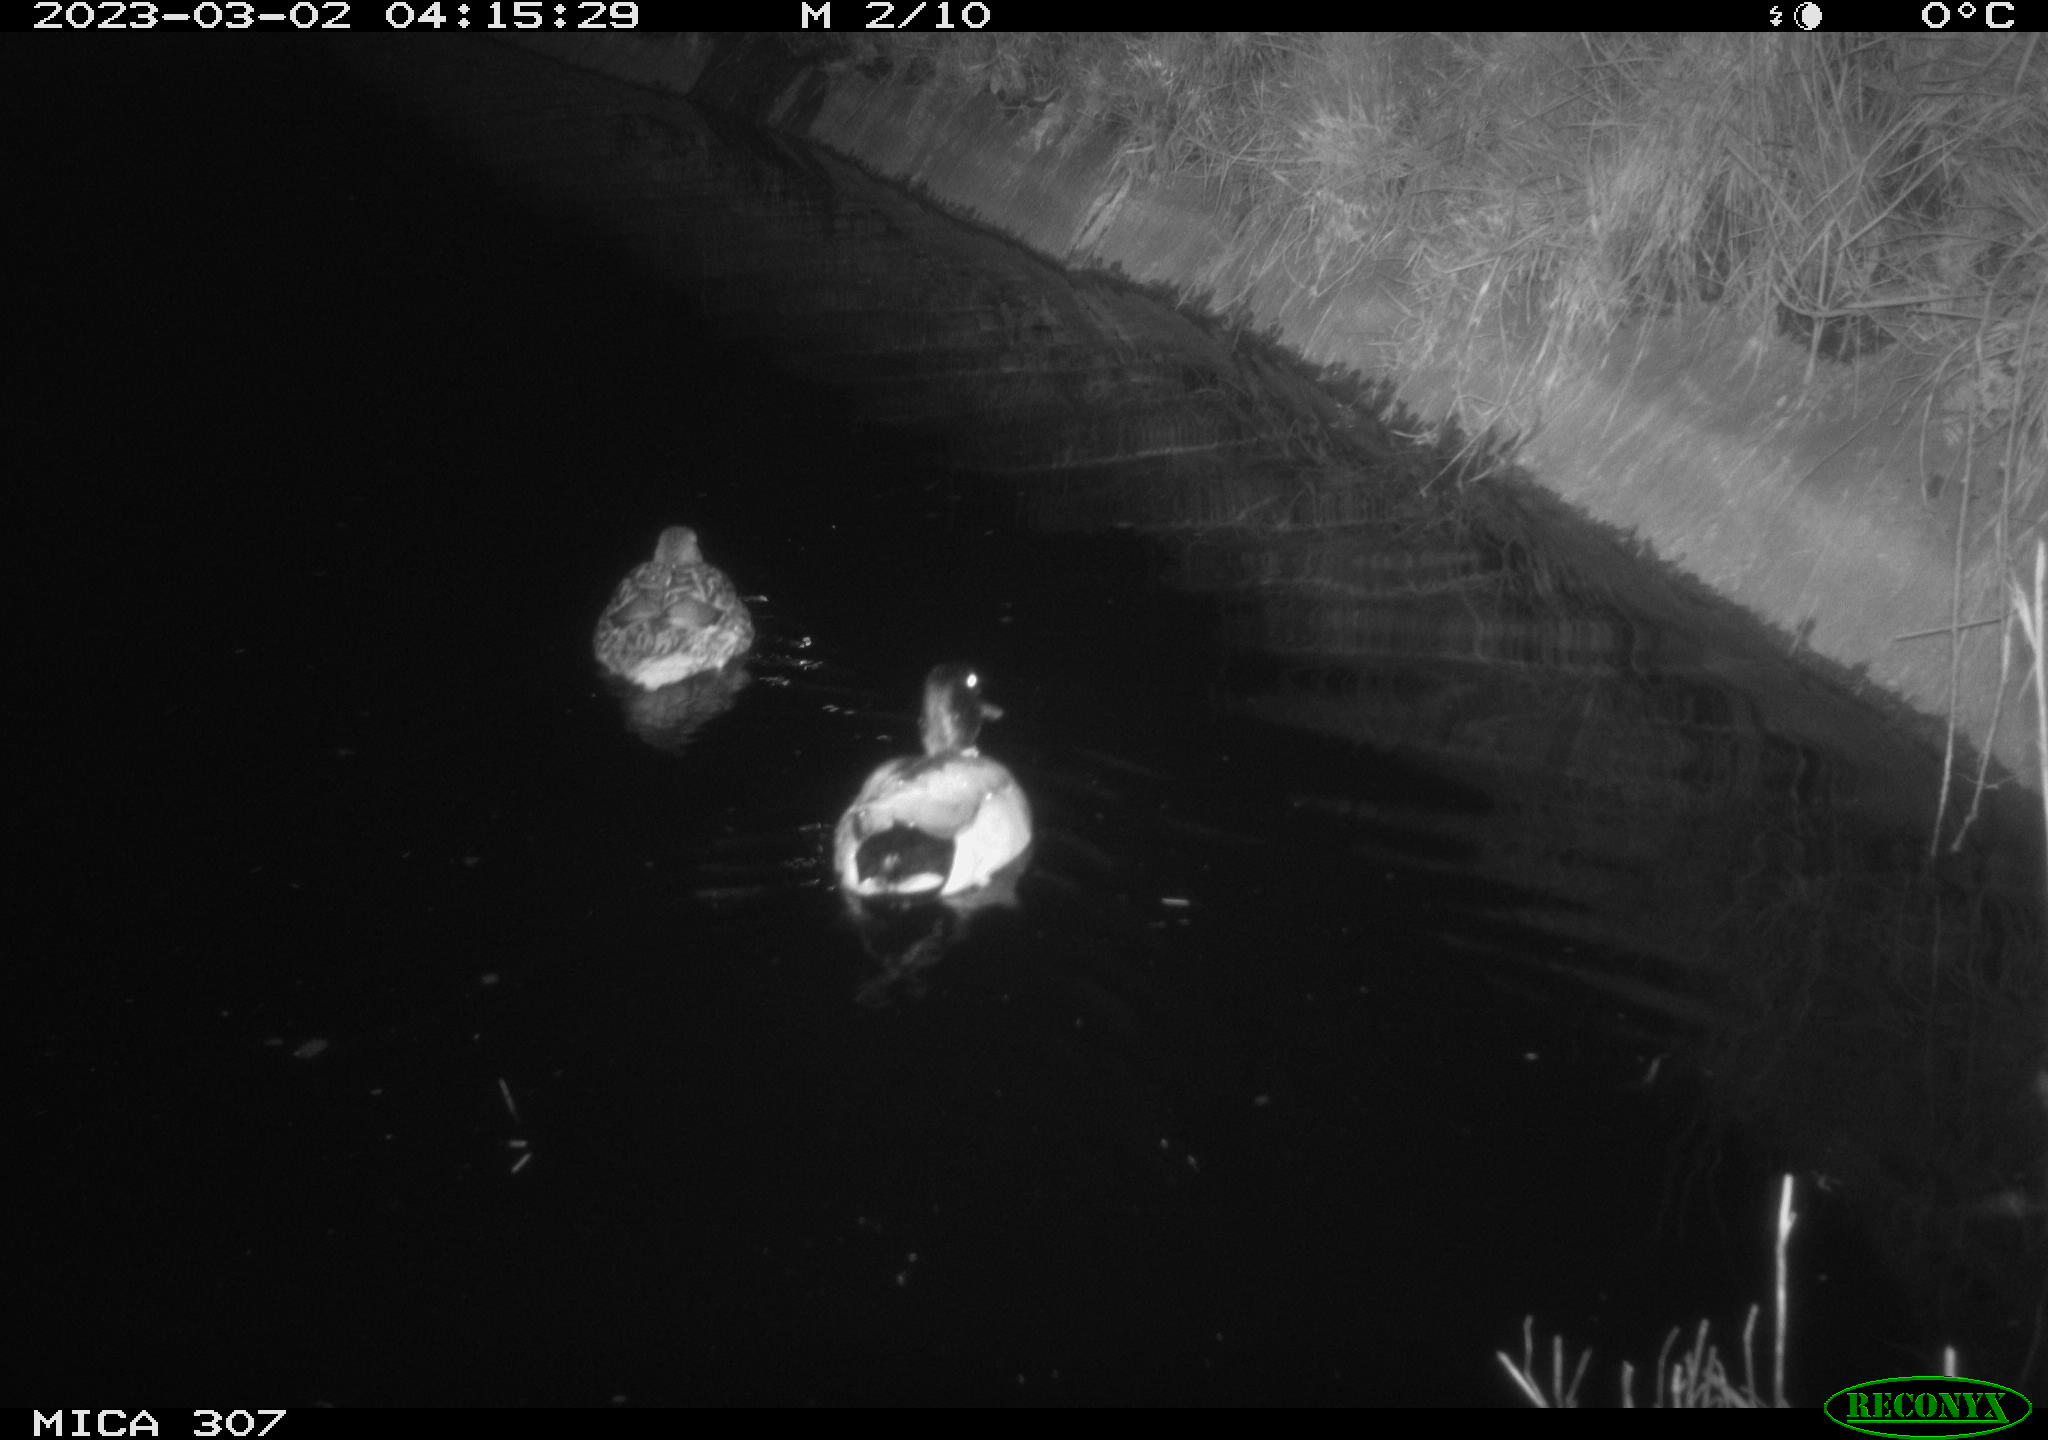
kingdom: Animalia
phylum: Chordata
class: Aves
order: Anseriformes
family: Anatidae
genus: Anas
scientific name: Anas
